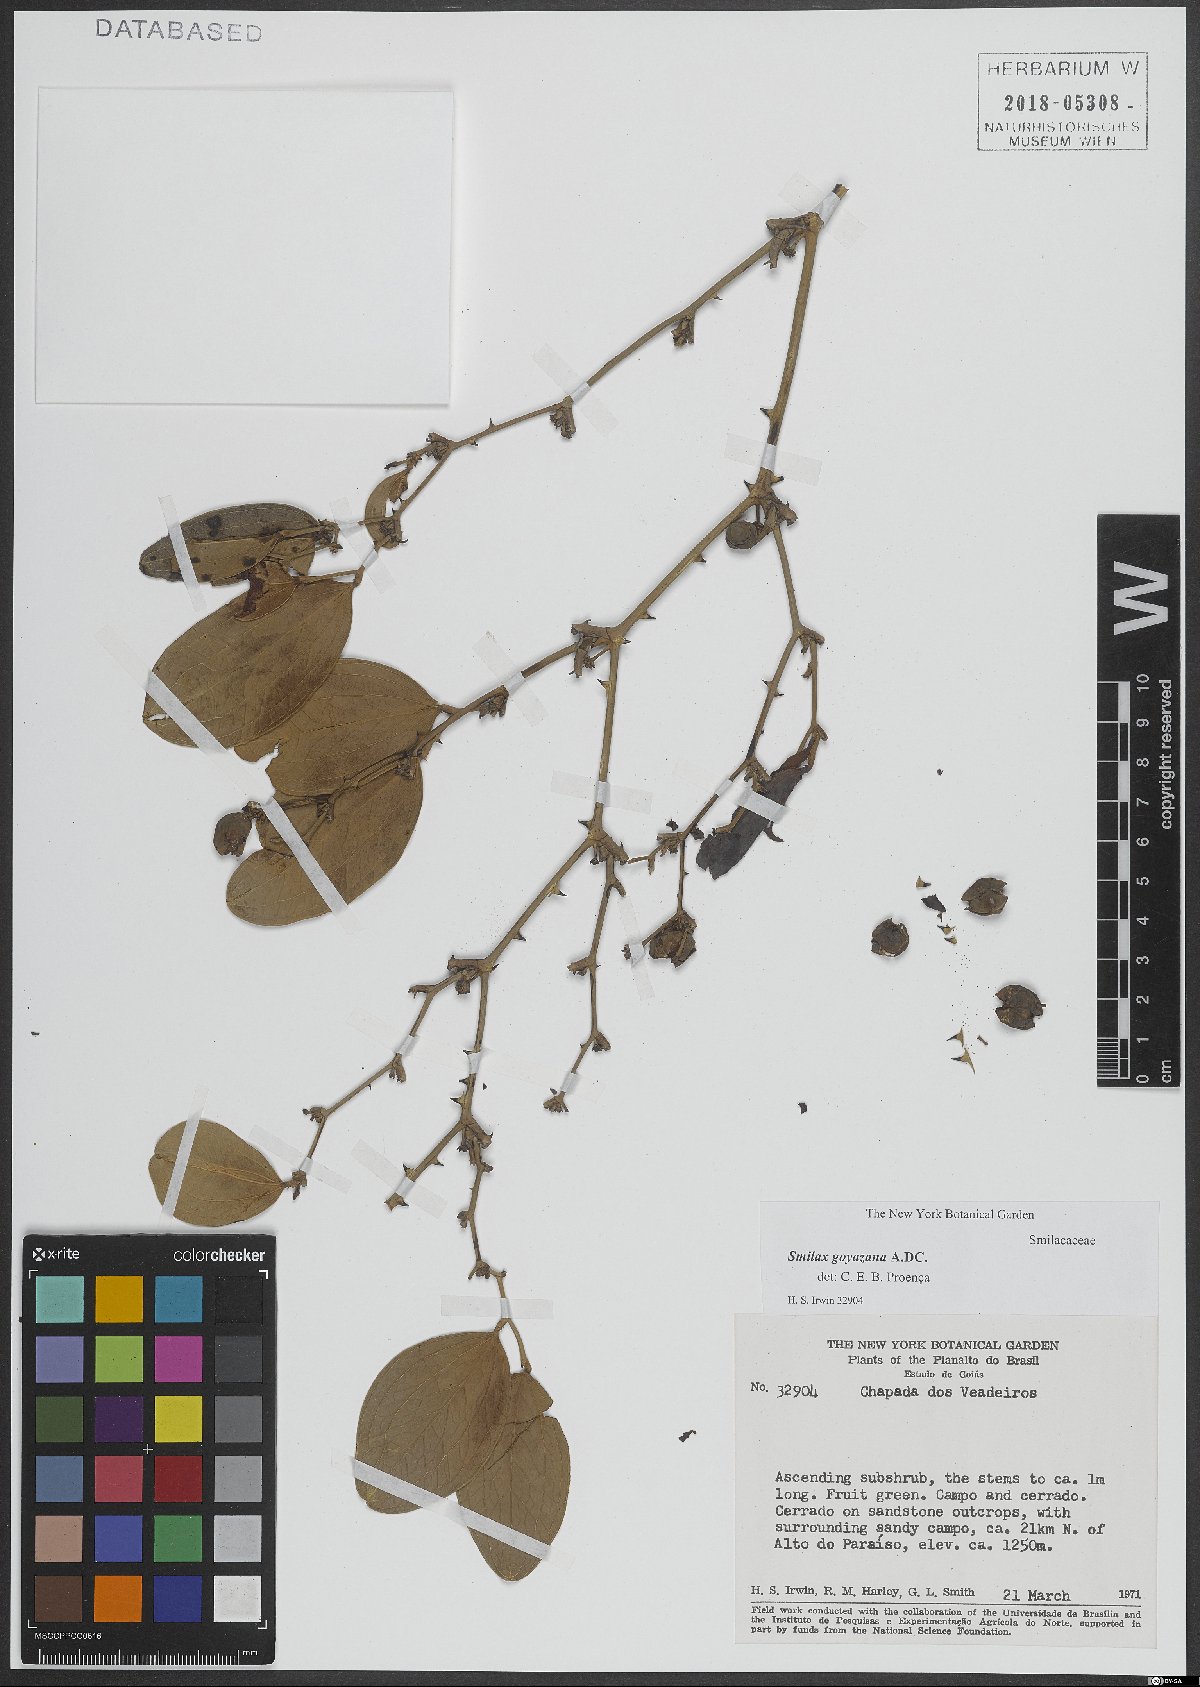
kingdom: Plantae
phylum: Tracheophyta
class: Liliopsida
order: Liliales
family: Smilacaceae
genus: Smilax
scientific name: Smilax goyazana
